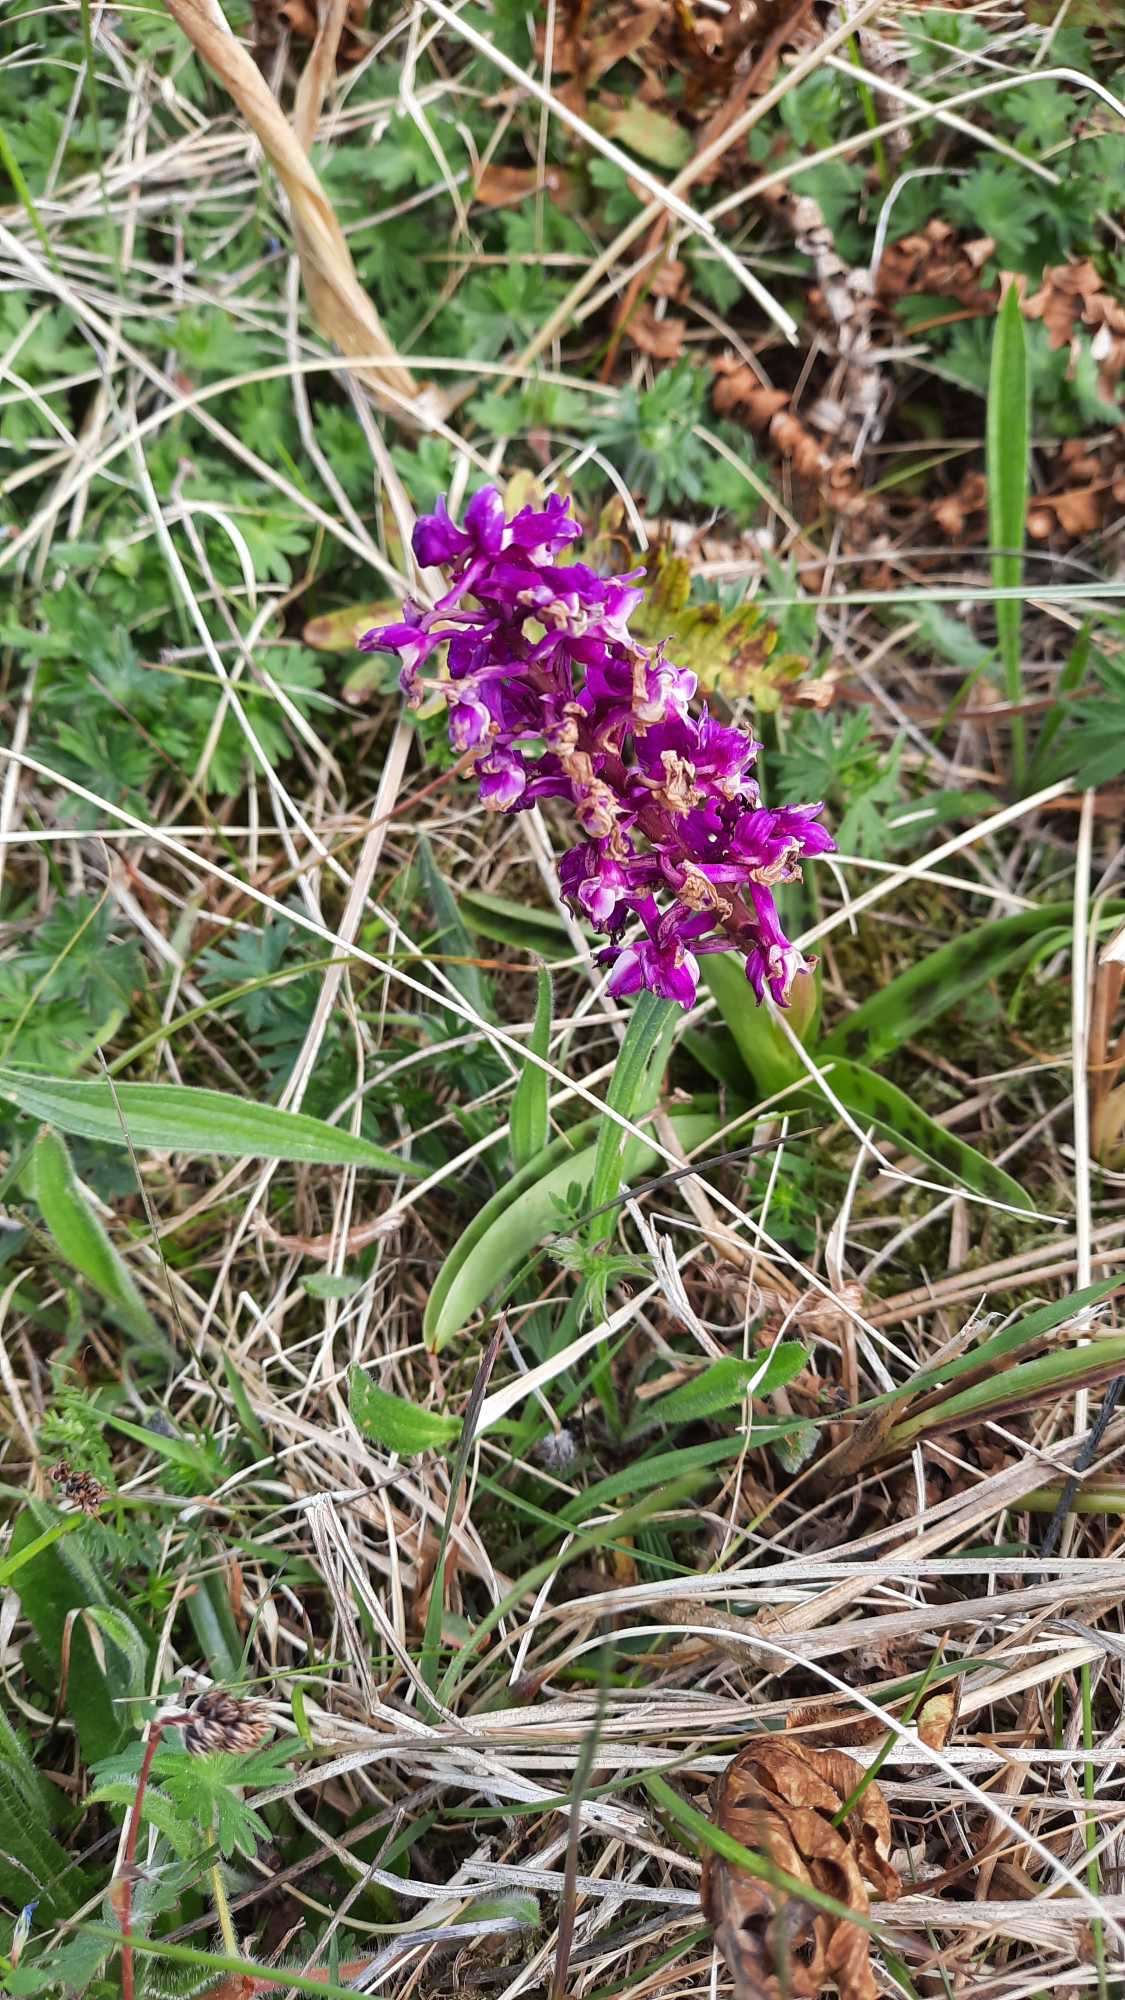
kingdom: Plantae
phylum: Tracheophyta
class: Liliopsida
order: Asparagales
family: Orchidaceae
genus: Orchis
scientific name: Orchis mascula
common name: Tyndakset gøgeurt
